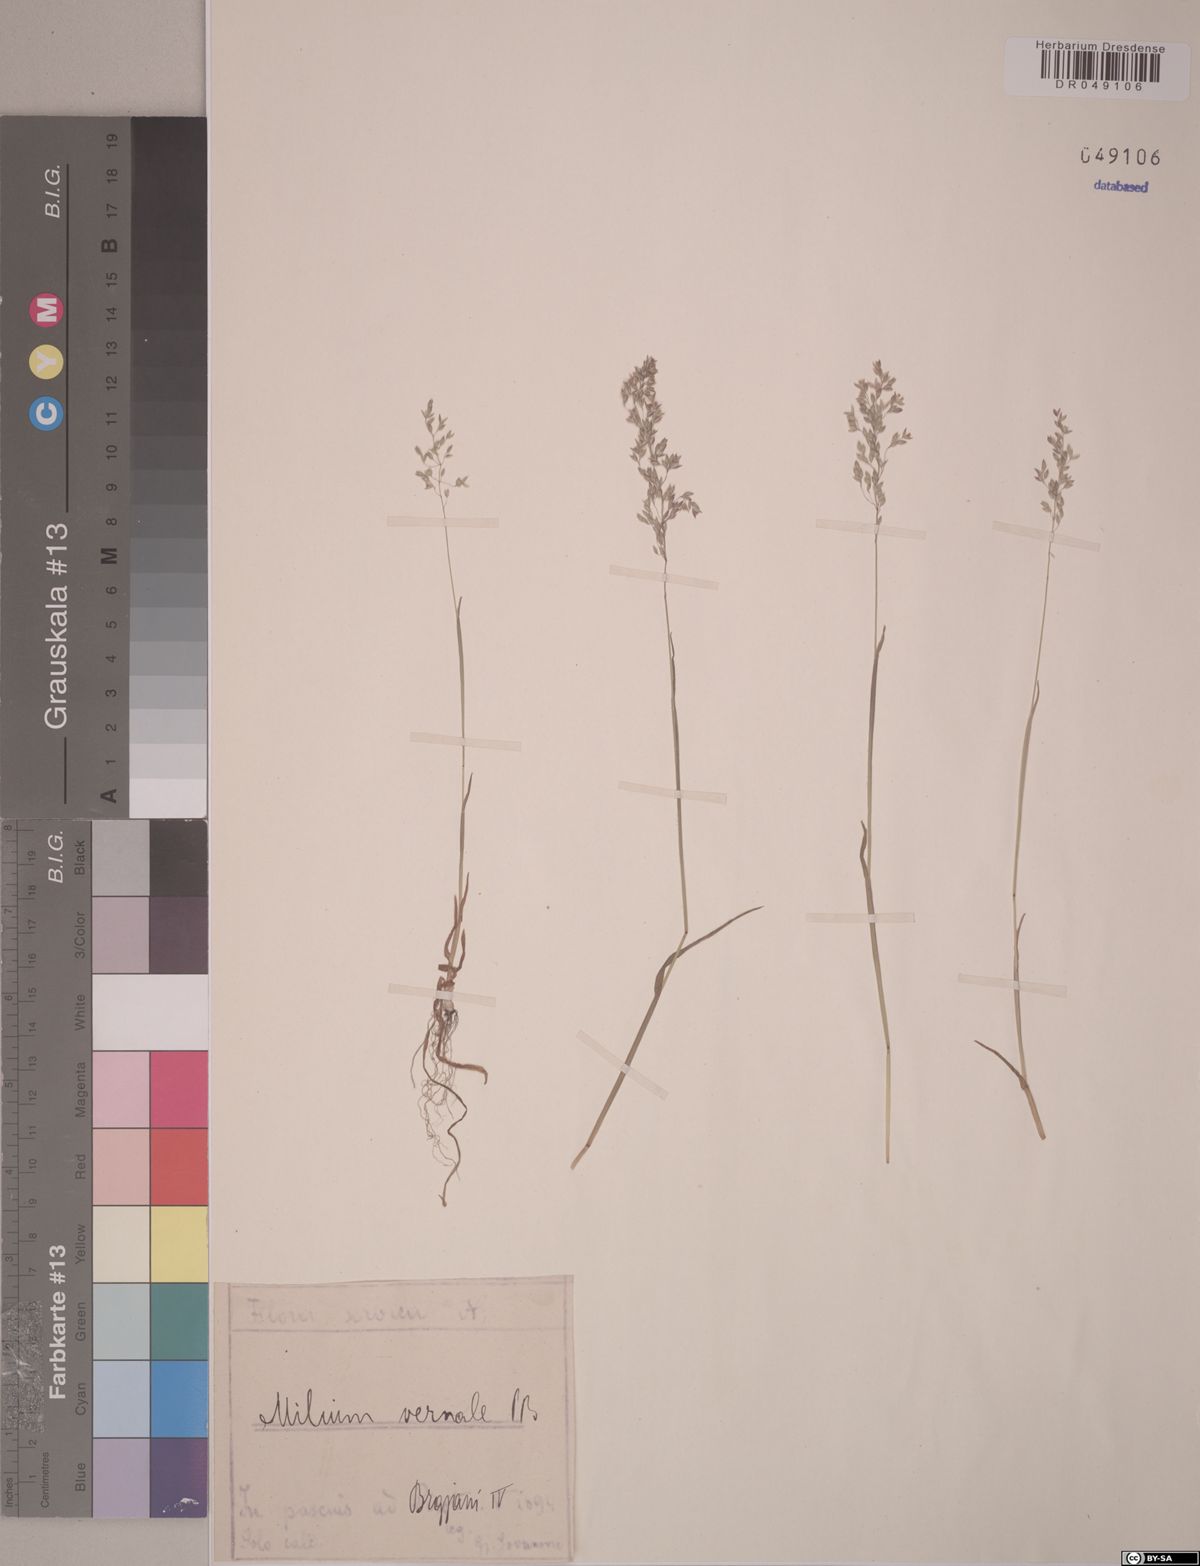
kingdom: Plantae
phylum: Tracheophyta
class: Liliopsida
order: Poales
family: Poaceae
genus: Milium
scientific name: Milium vernale
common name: Early millet
